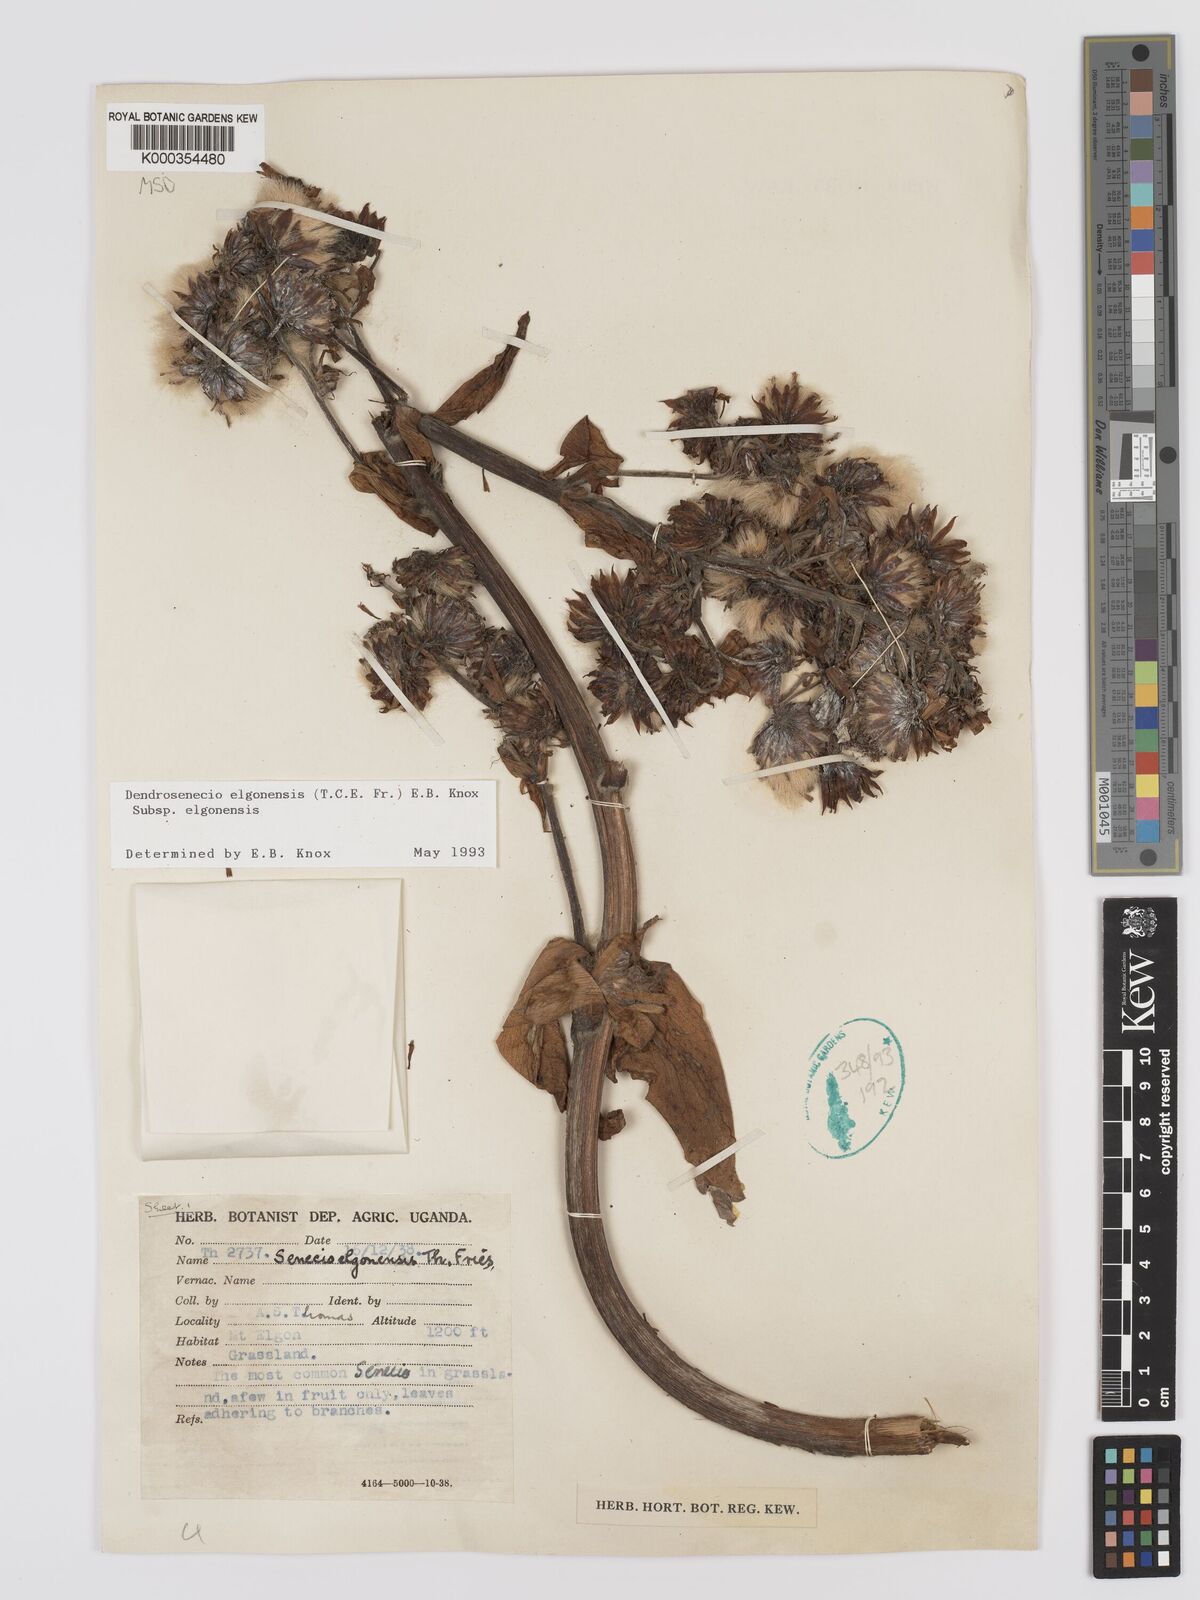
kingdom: Plantae
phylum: Tracheophyta
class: Magnoliopsida
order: Asterales
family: Asteraceae
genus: Dendrosenecio
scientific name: Dendrosenecio elgonensis
